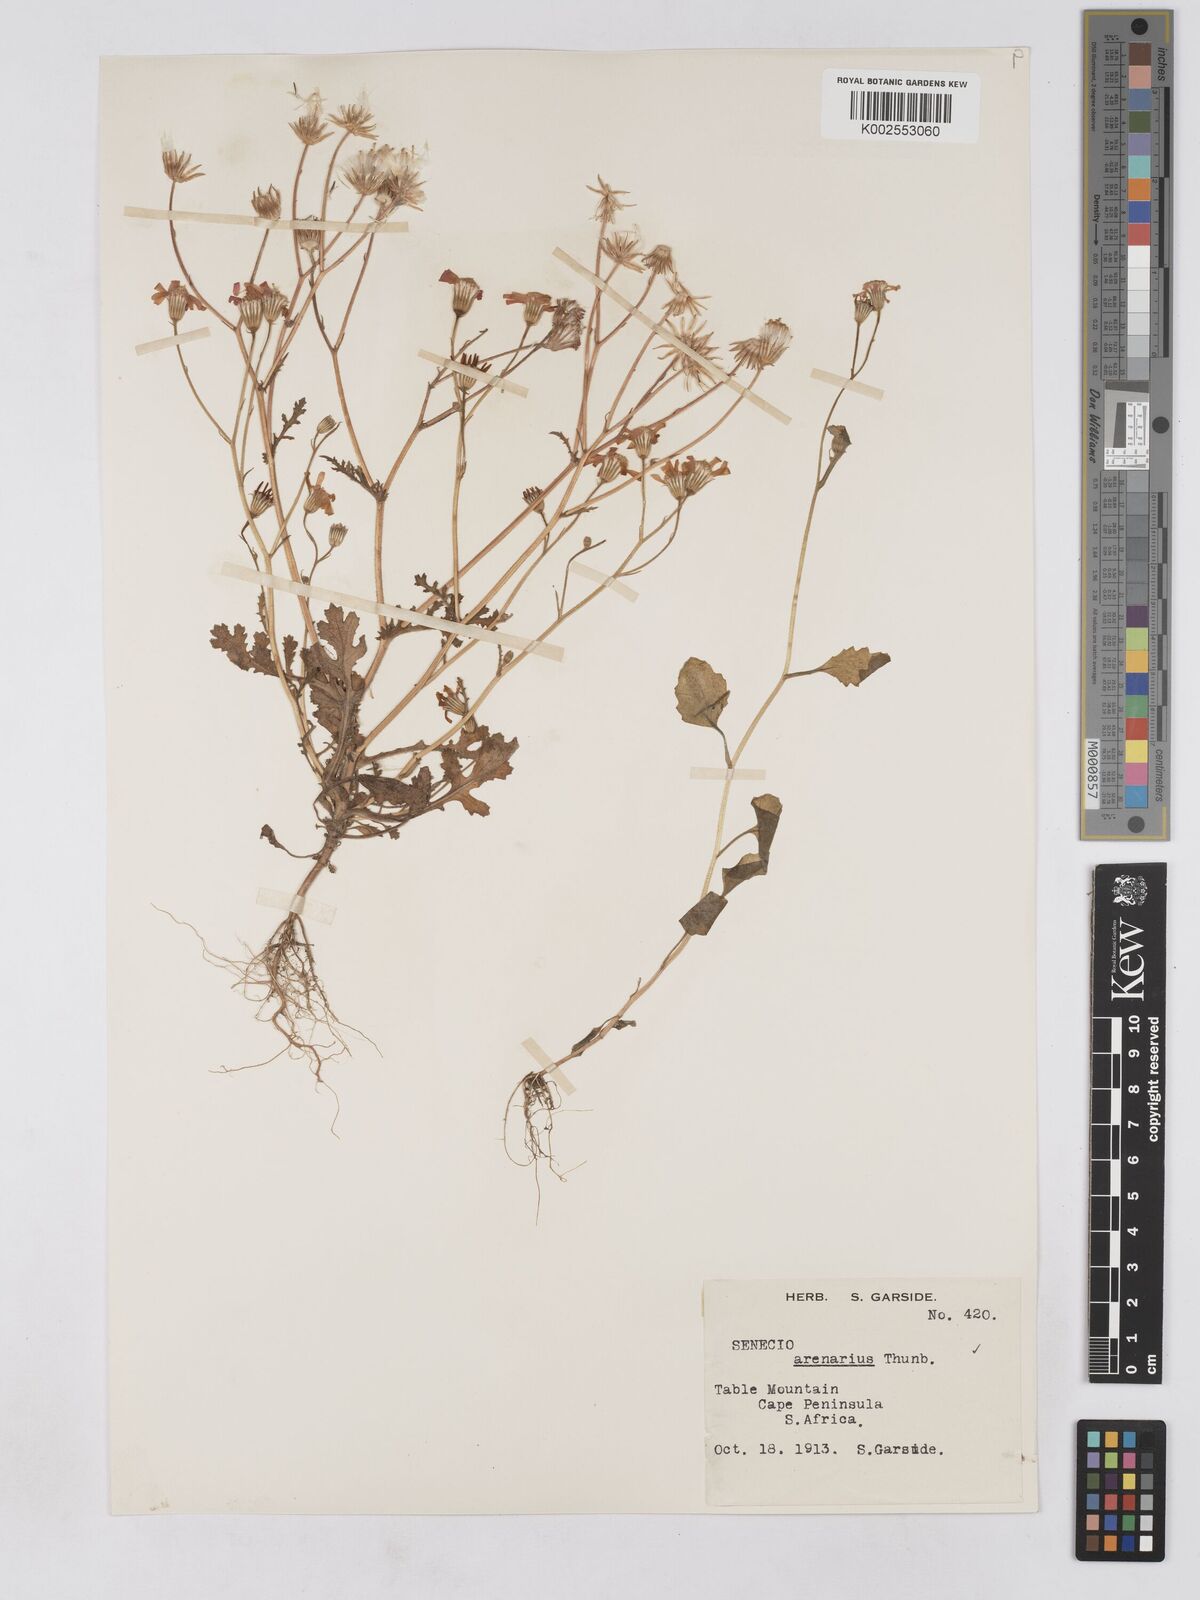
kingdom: Plantae
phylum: Tracheophyta
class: Magnoliopsida
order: Asterales
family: Asteraceae
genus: Senecio
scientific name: Senecio arenarius
